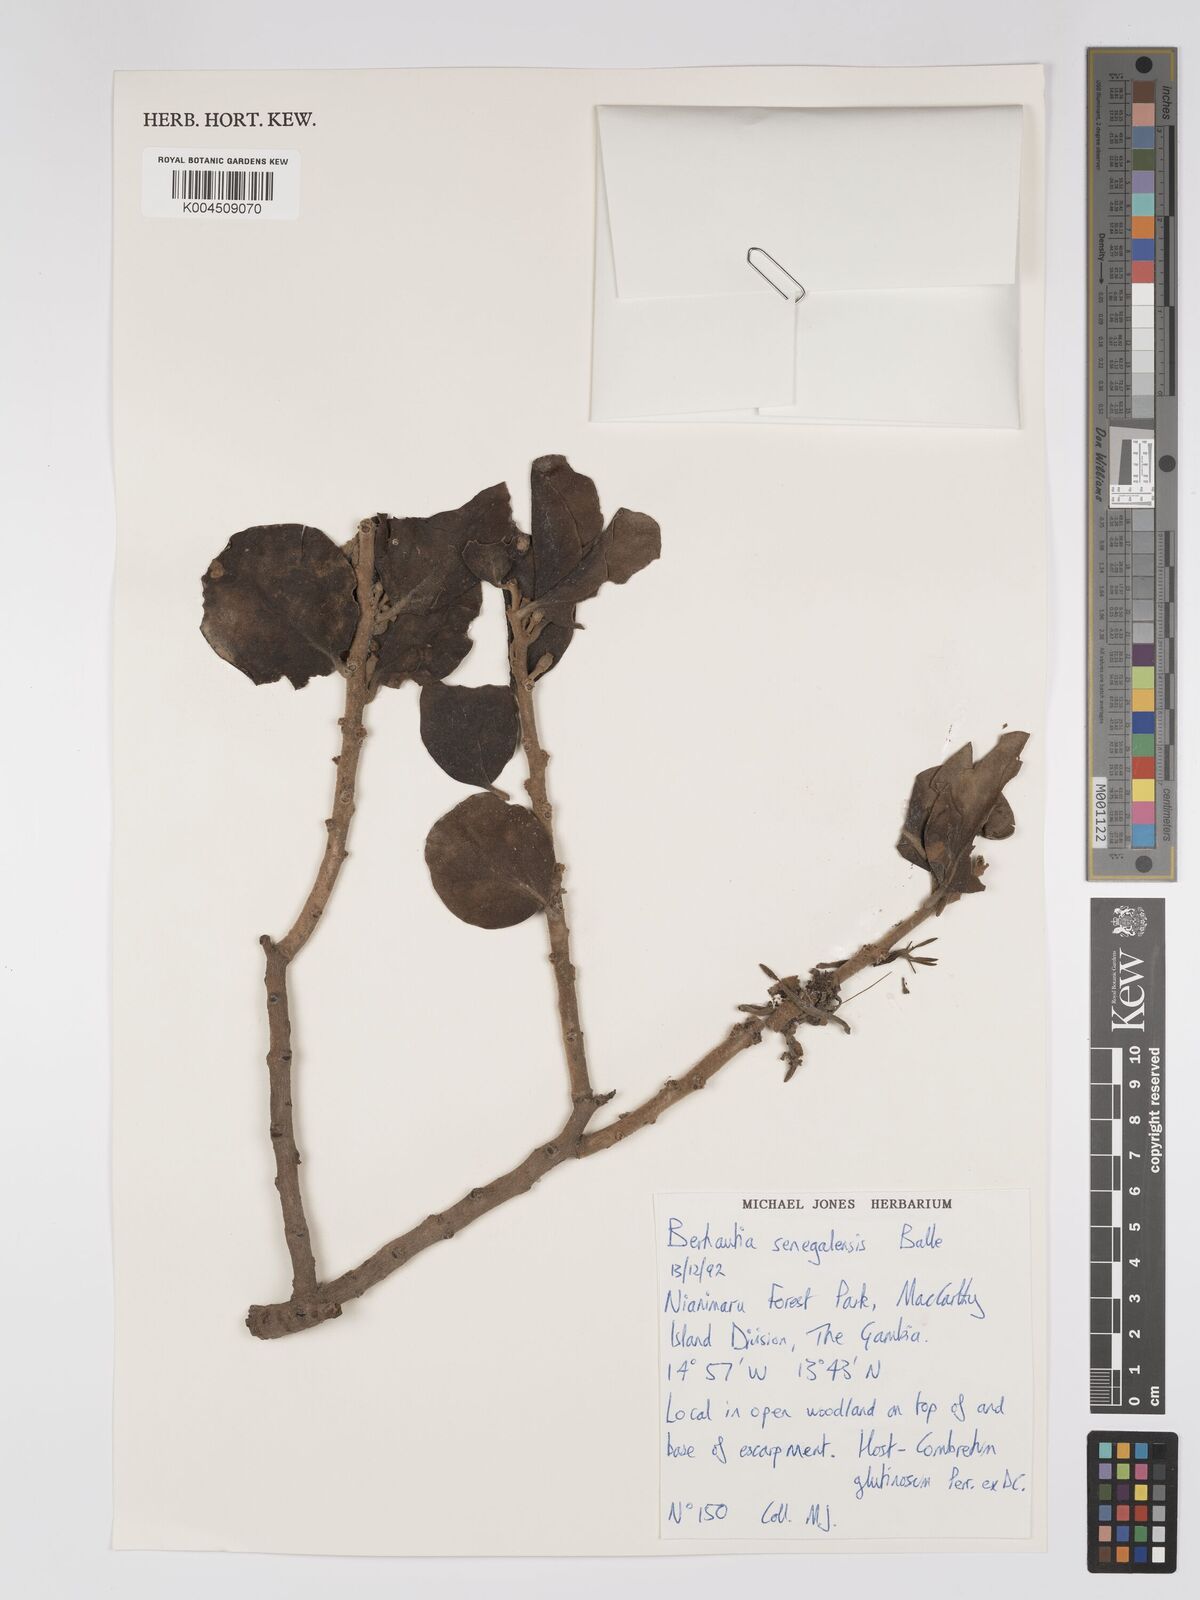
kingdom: Plantae
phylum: Tracheophyta
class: Magnoliopsida
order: Santalales
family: Loranthaceae
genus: Berhautia
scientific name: Berhautia
